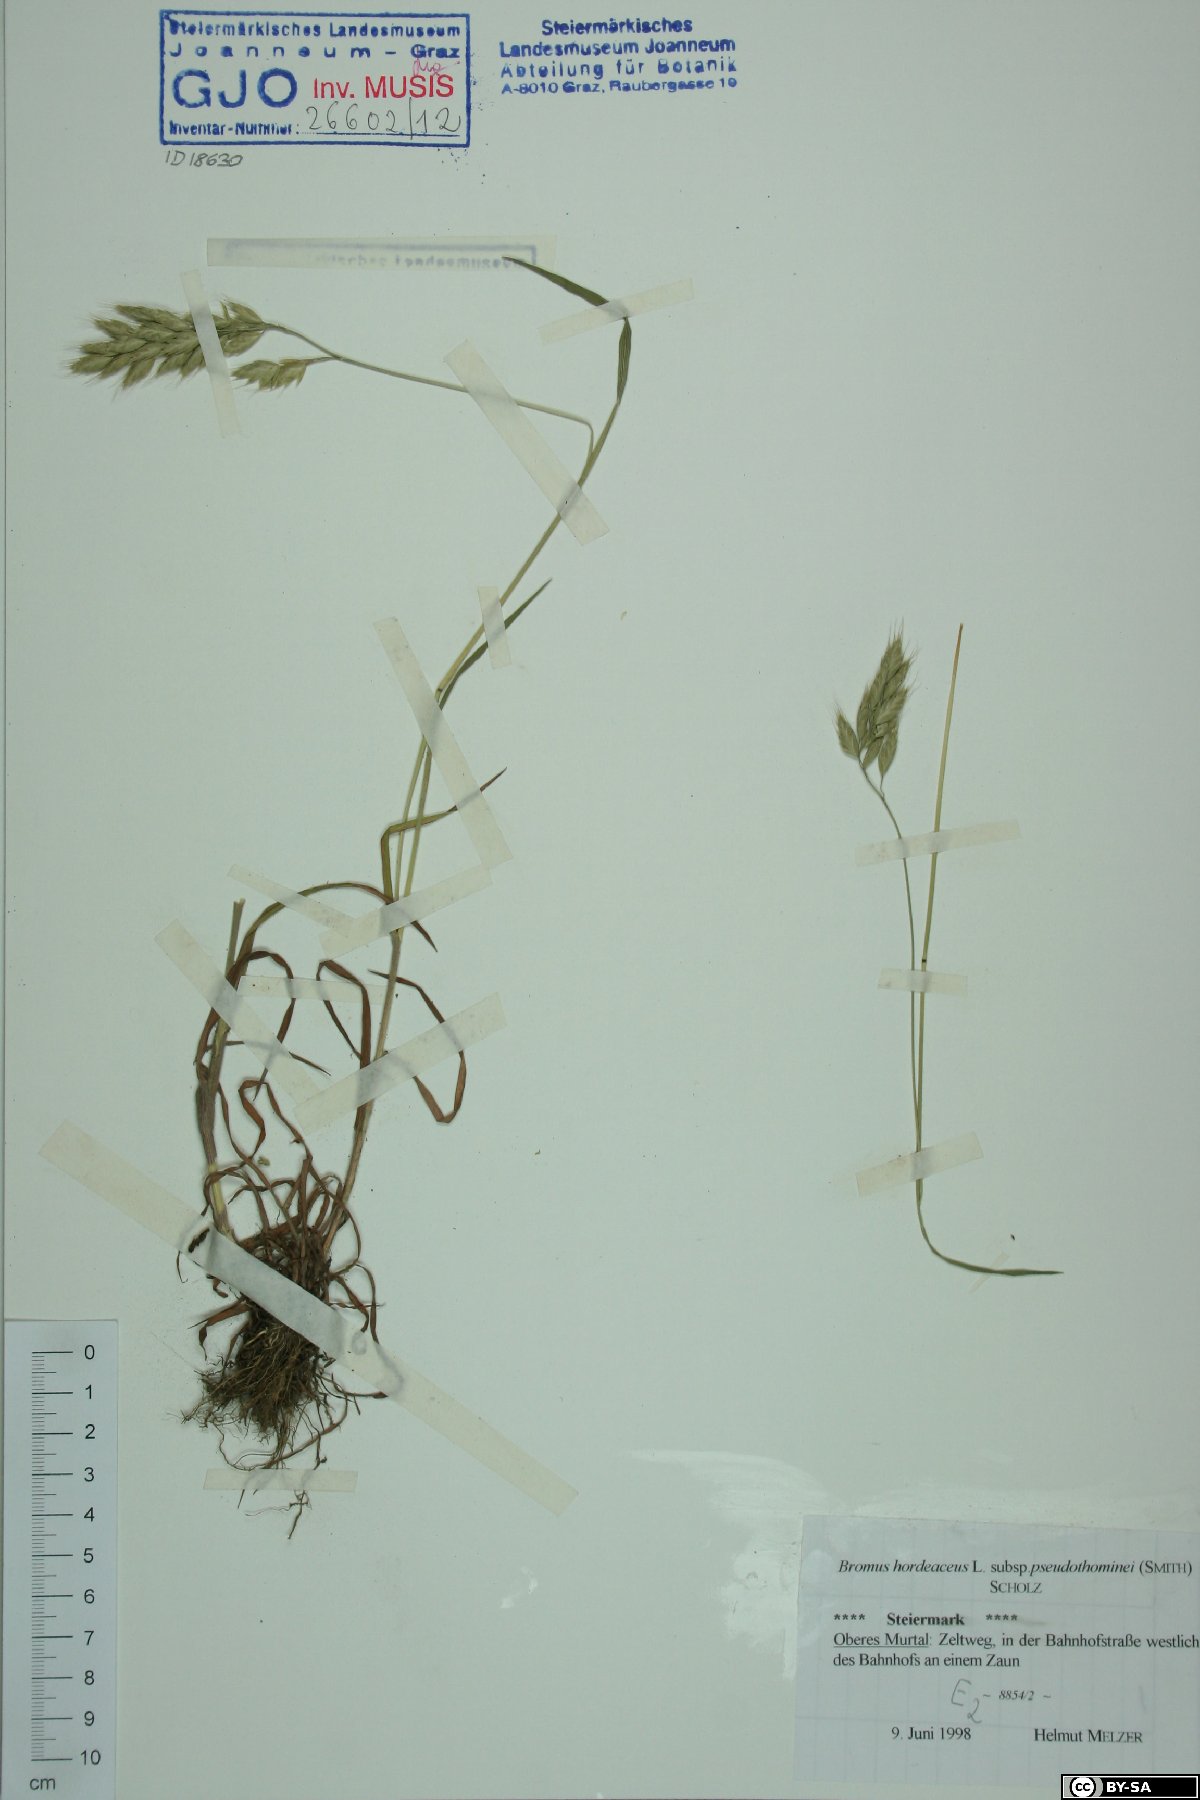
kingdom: Plantae
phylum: Tracheophyta
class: Liliopsida
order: Poales
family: Poaceae
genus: Bromus
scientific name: Bromus ferronii
